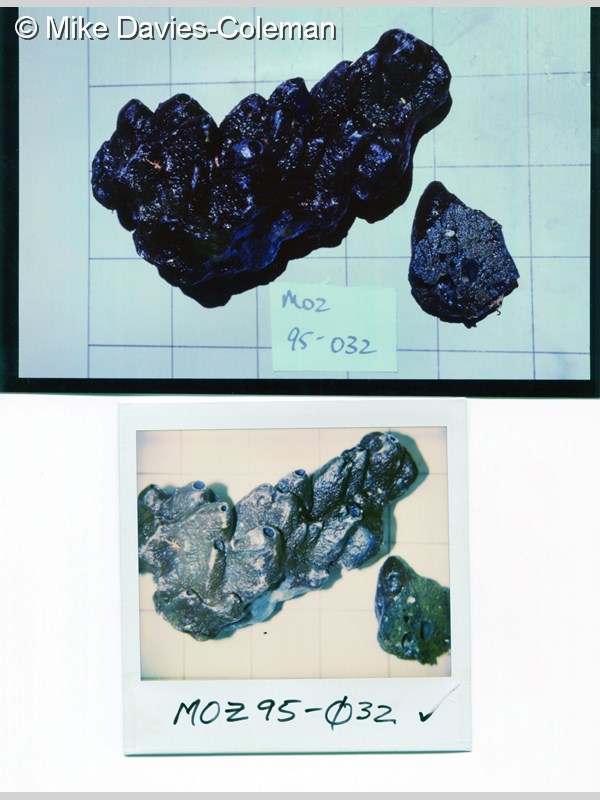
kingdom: Animalia
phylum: Porifera
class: Demospongiae
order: Tetractinellida
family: Theonellidae
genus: Theonella
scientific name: Theonella conica
